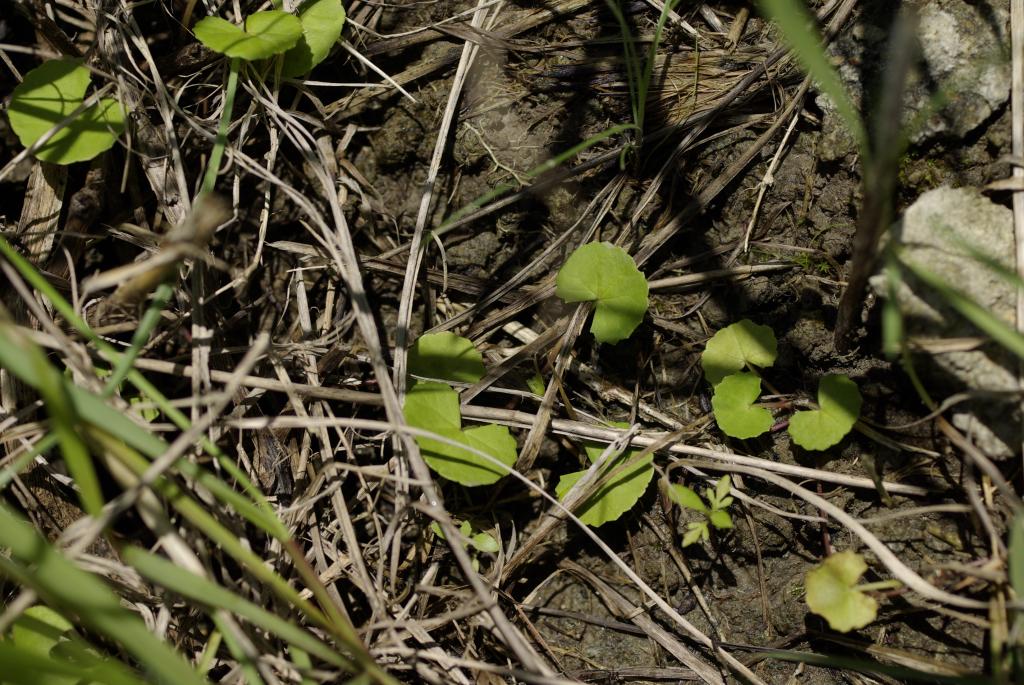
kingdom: Plantae
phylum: Tracheophyta
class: Magnoliopsida
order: Apiales
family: Apiaceae
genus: Centella
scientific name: Centella asiatica
